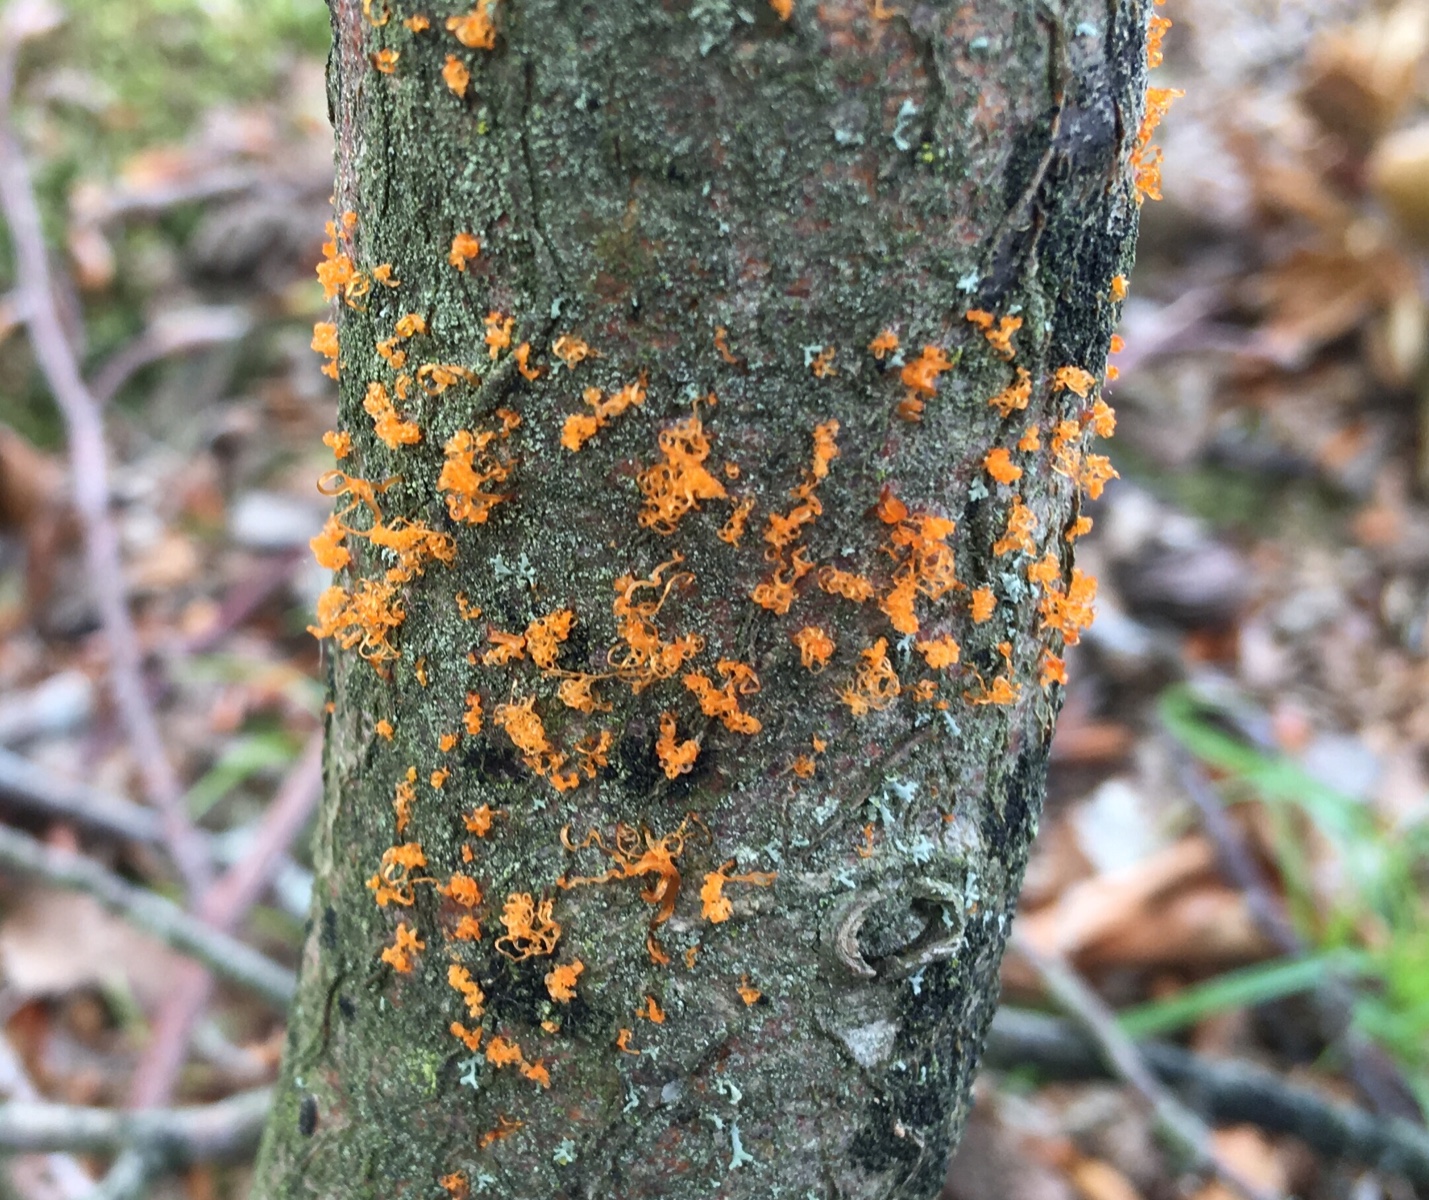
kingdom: Fungi
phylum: Ascomycota
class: Sordariomycetes
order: Xylariales
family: Diatrypaceae
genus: Eutypella
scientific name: Eutypella quaternata
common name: bøge-korsprik
